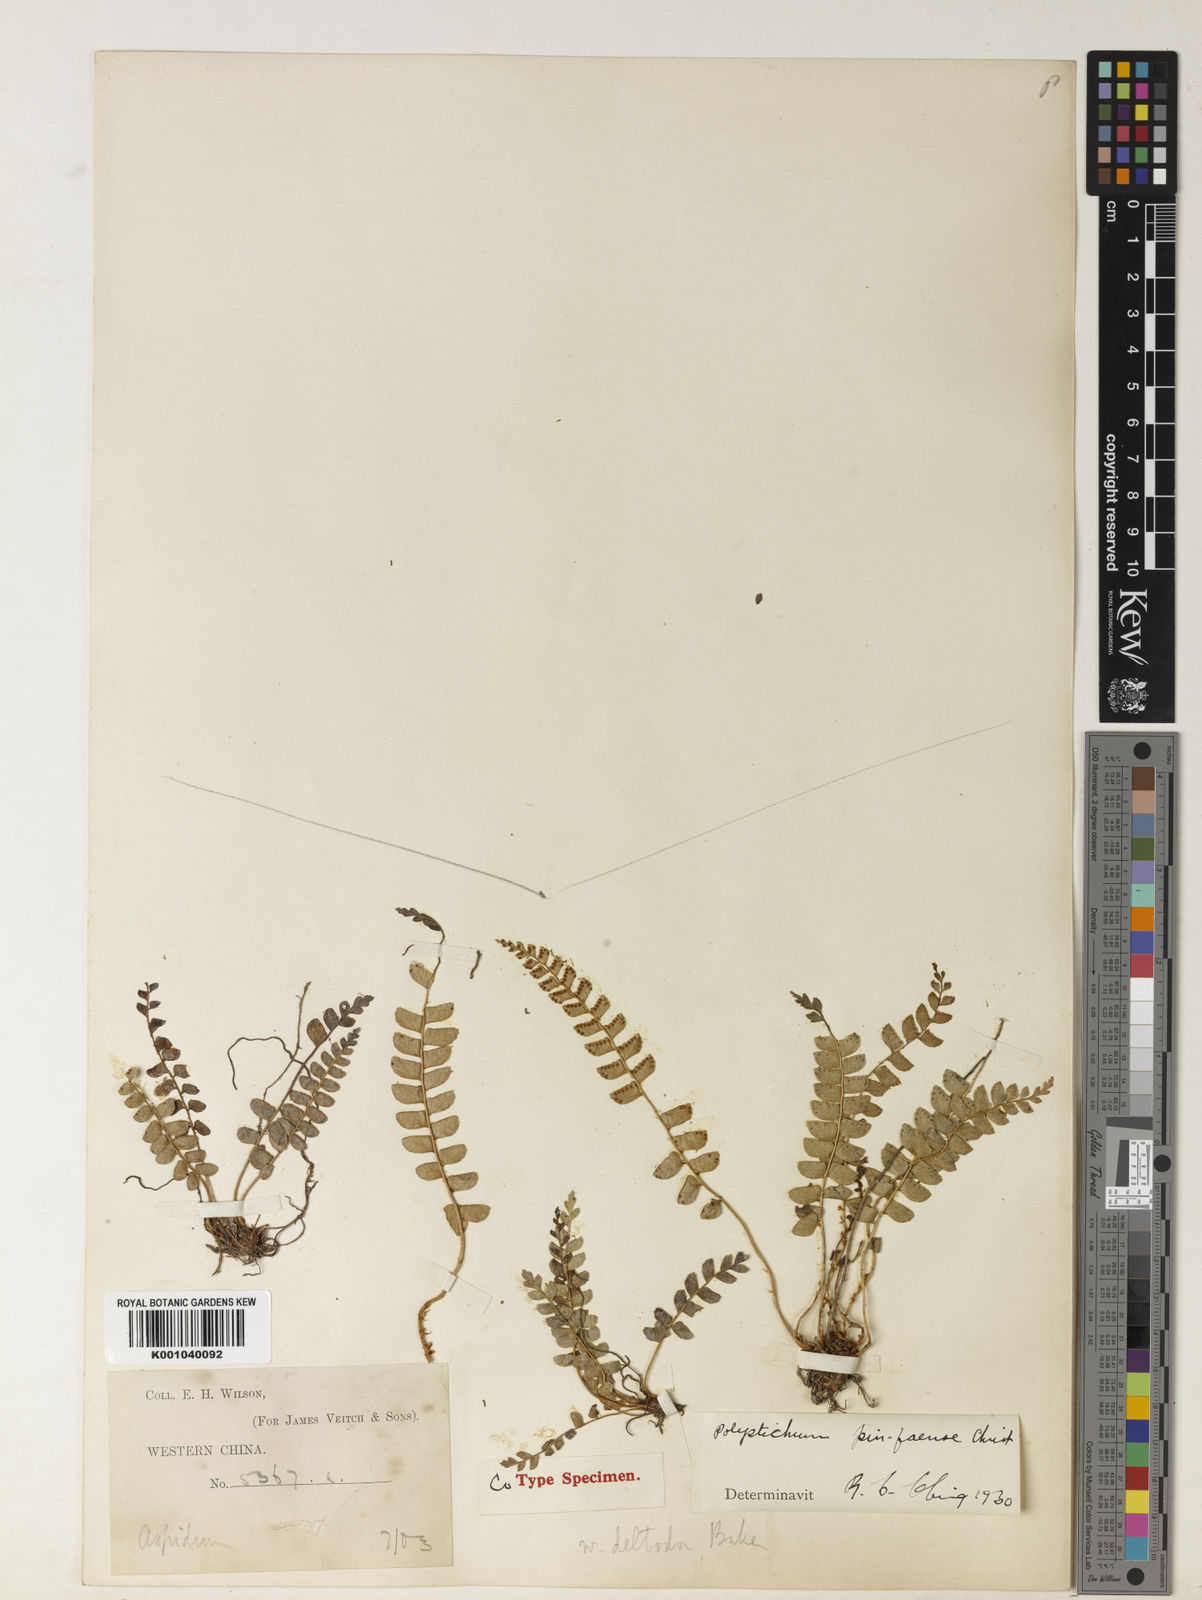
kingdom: Plantae
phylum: Tracheophyta
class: Polypodiopsida
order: Polypodiales
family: Dryopteridaceae
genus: Polystichum
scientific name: Polystichum dielsii
